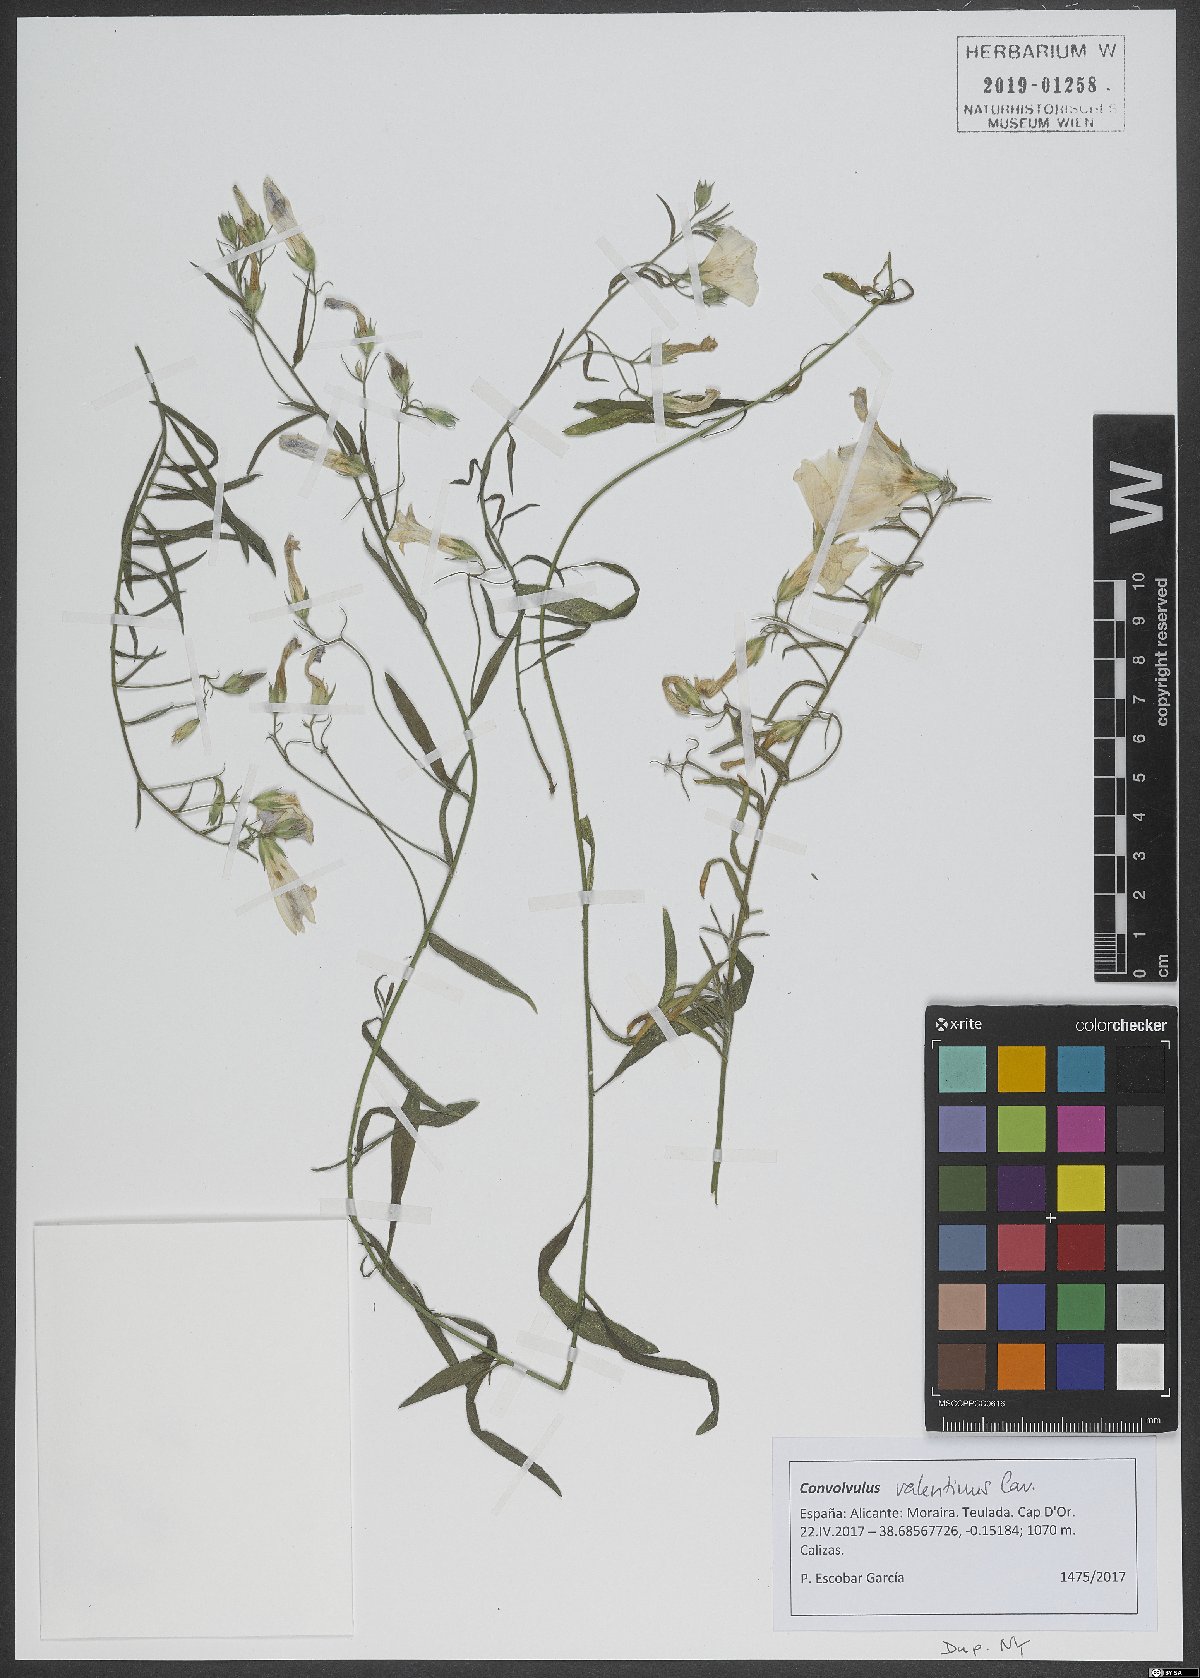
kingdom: Plantae
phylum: Tracheophyta
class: Magnoliopsida
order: Solanales
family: Convolvulaceae
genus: Convolvulus
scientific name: Convolvulus valentinus
